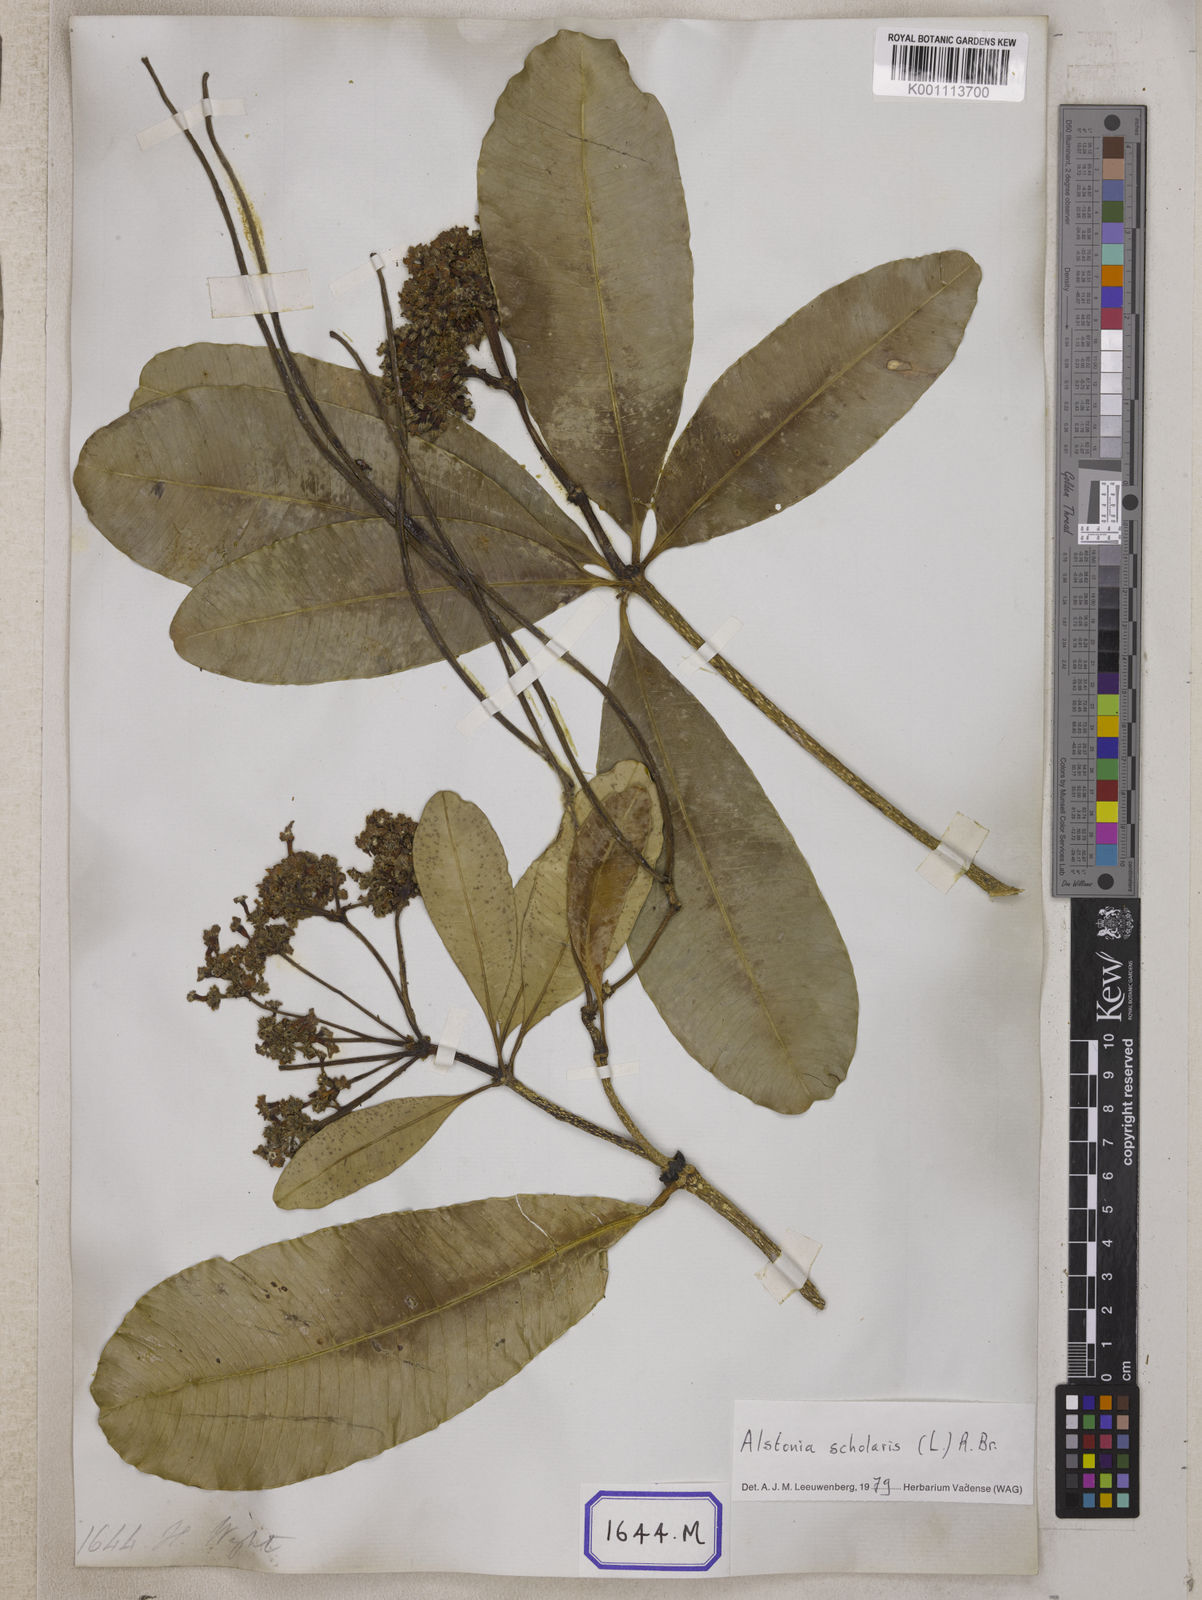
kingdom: Plantae
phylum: Tracheophyta
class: Magnoliopsida
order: Gentianales
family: Apocynaceae
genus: Alstonia
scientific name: Alstonia scholaris
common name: White cheesewood
